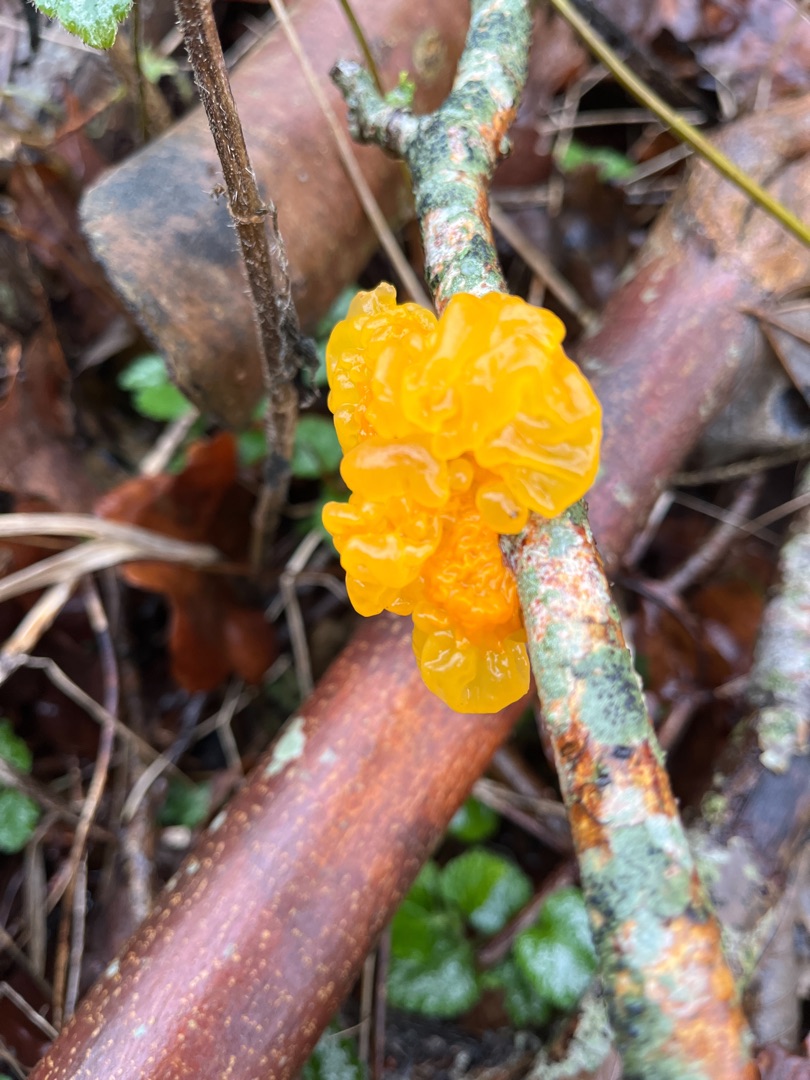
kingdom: Fungi
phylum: Basidiomycota
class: Tremellomycetes
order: Tremellales
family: Tremellaceae
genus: Tremella
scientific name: Tremella mesenterica
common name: Gul bævresvamp
